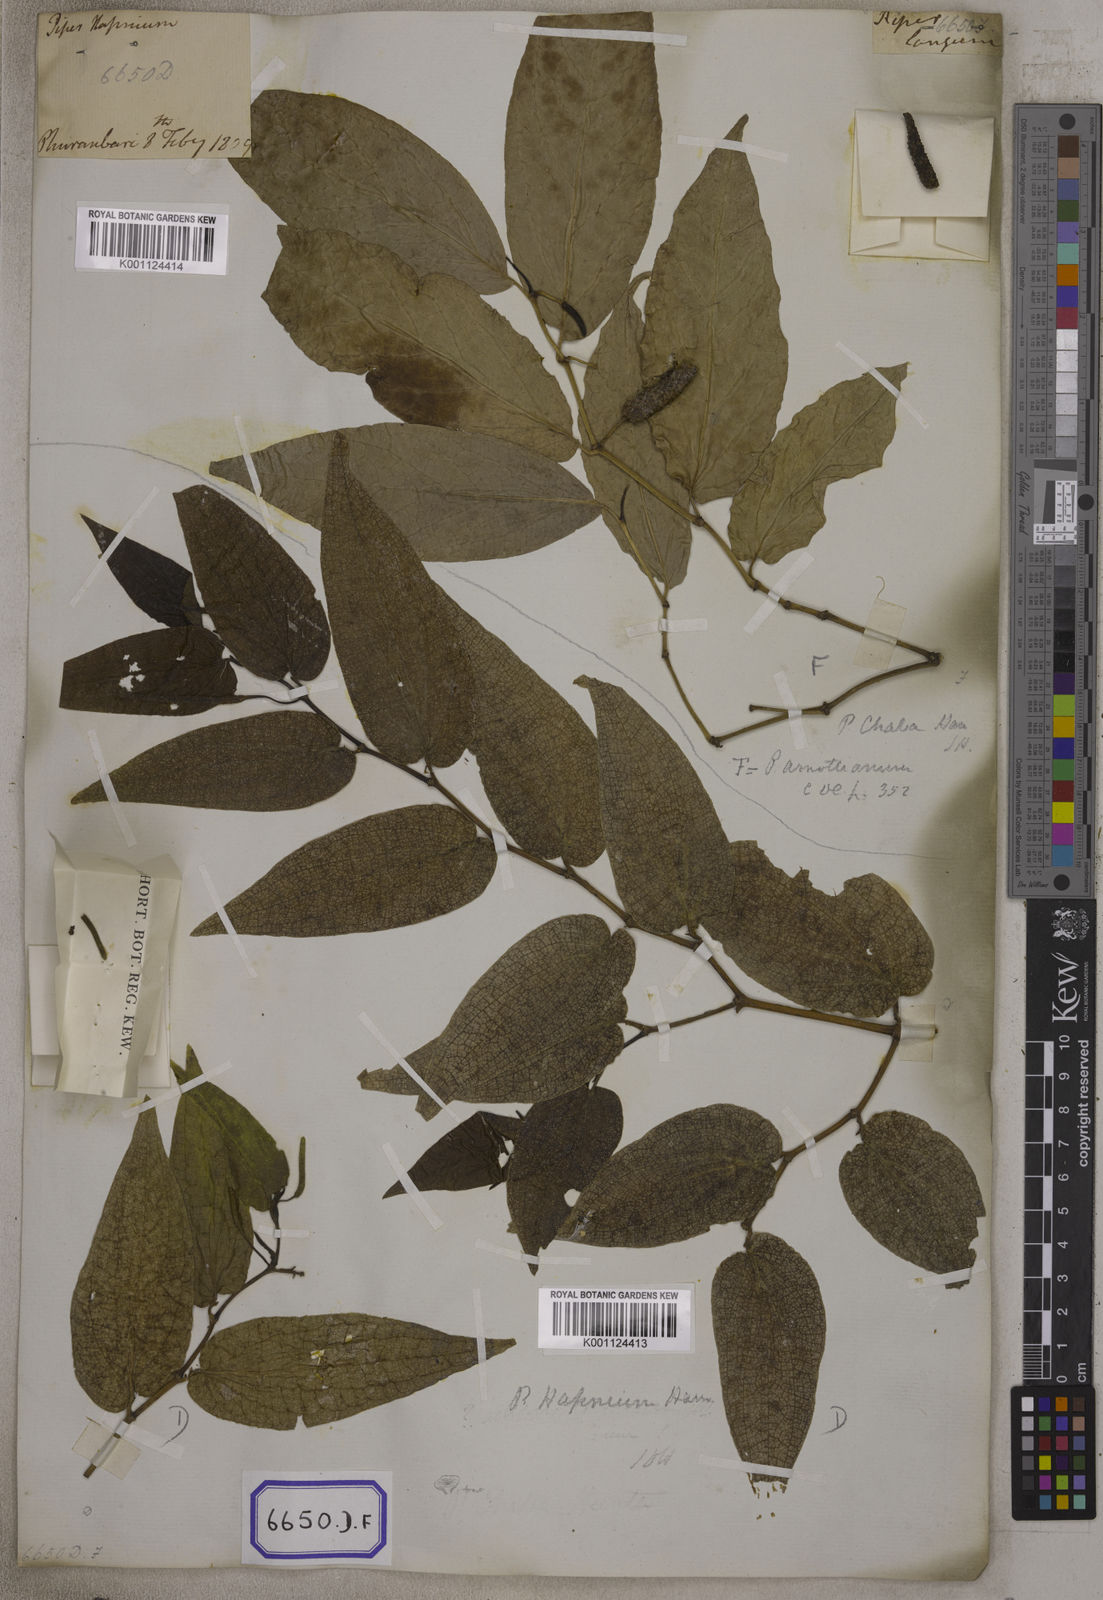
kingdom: Plantae
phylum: Tracheophyta
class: Magnoliopsida
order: Piperales
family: Piperaceae
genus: Piper
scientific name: Piper
